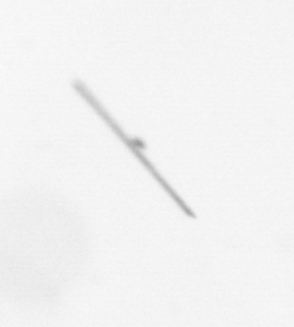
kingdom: Chromista
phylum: Ochrophyta
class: Bacillariophyceae
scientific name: Bacillariophyceae
